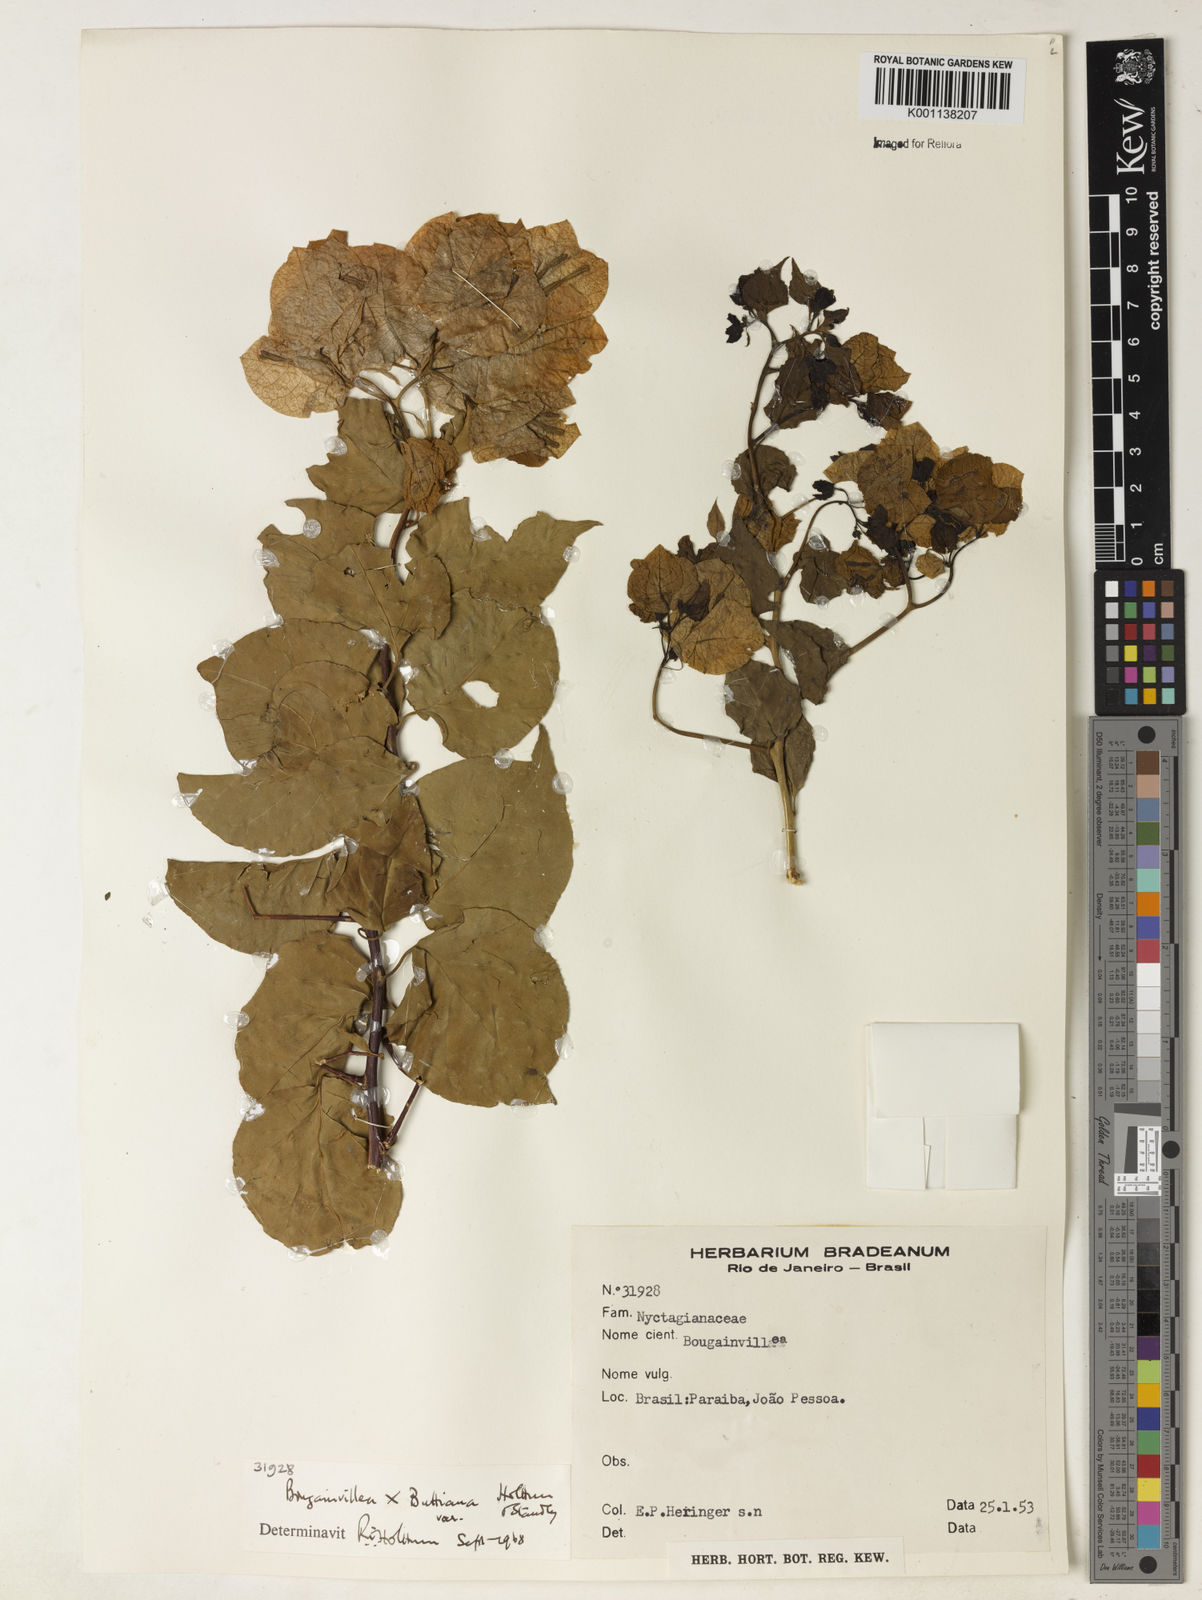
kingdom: Plantae
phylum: Tracheophyta
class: Magnoliopsida
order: Caryophyllales
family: Nyctaginaceae
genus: Bougainvillea
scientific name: Bougainvillea buttiana
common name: Bougainvillea
